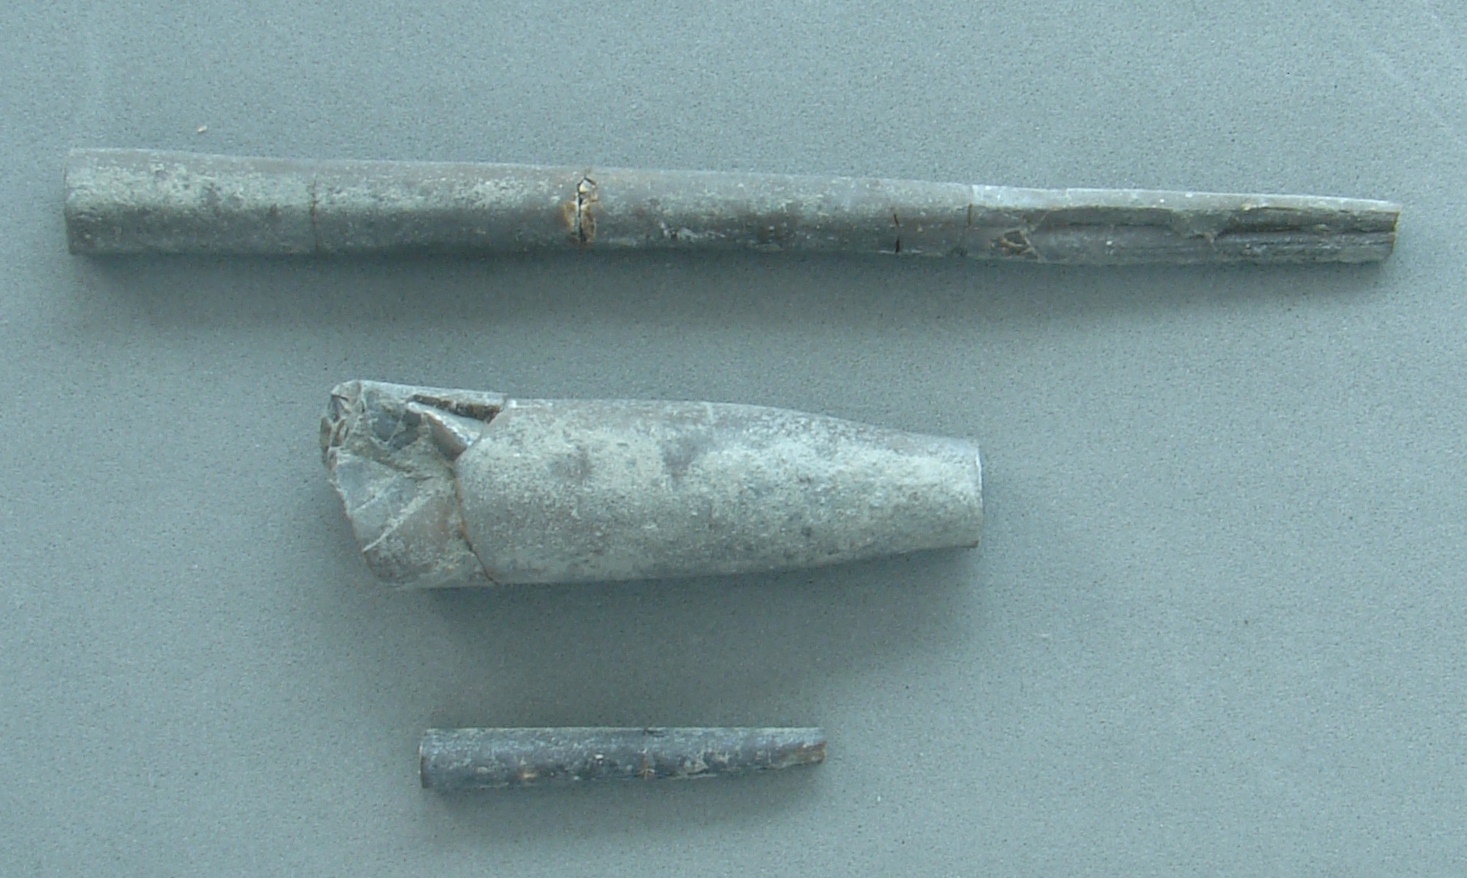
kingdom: Animalia
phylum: Mollusca
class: Cephalopoda
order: Belemnitida
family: Megateuthididae
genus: Dactyloteuthis
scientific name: Dactyloteuthis semistriata
